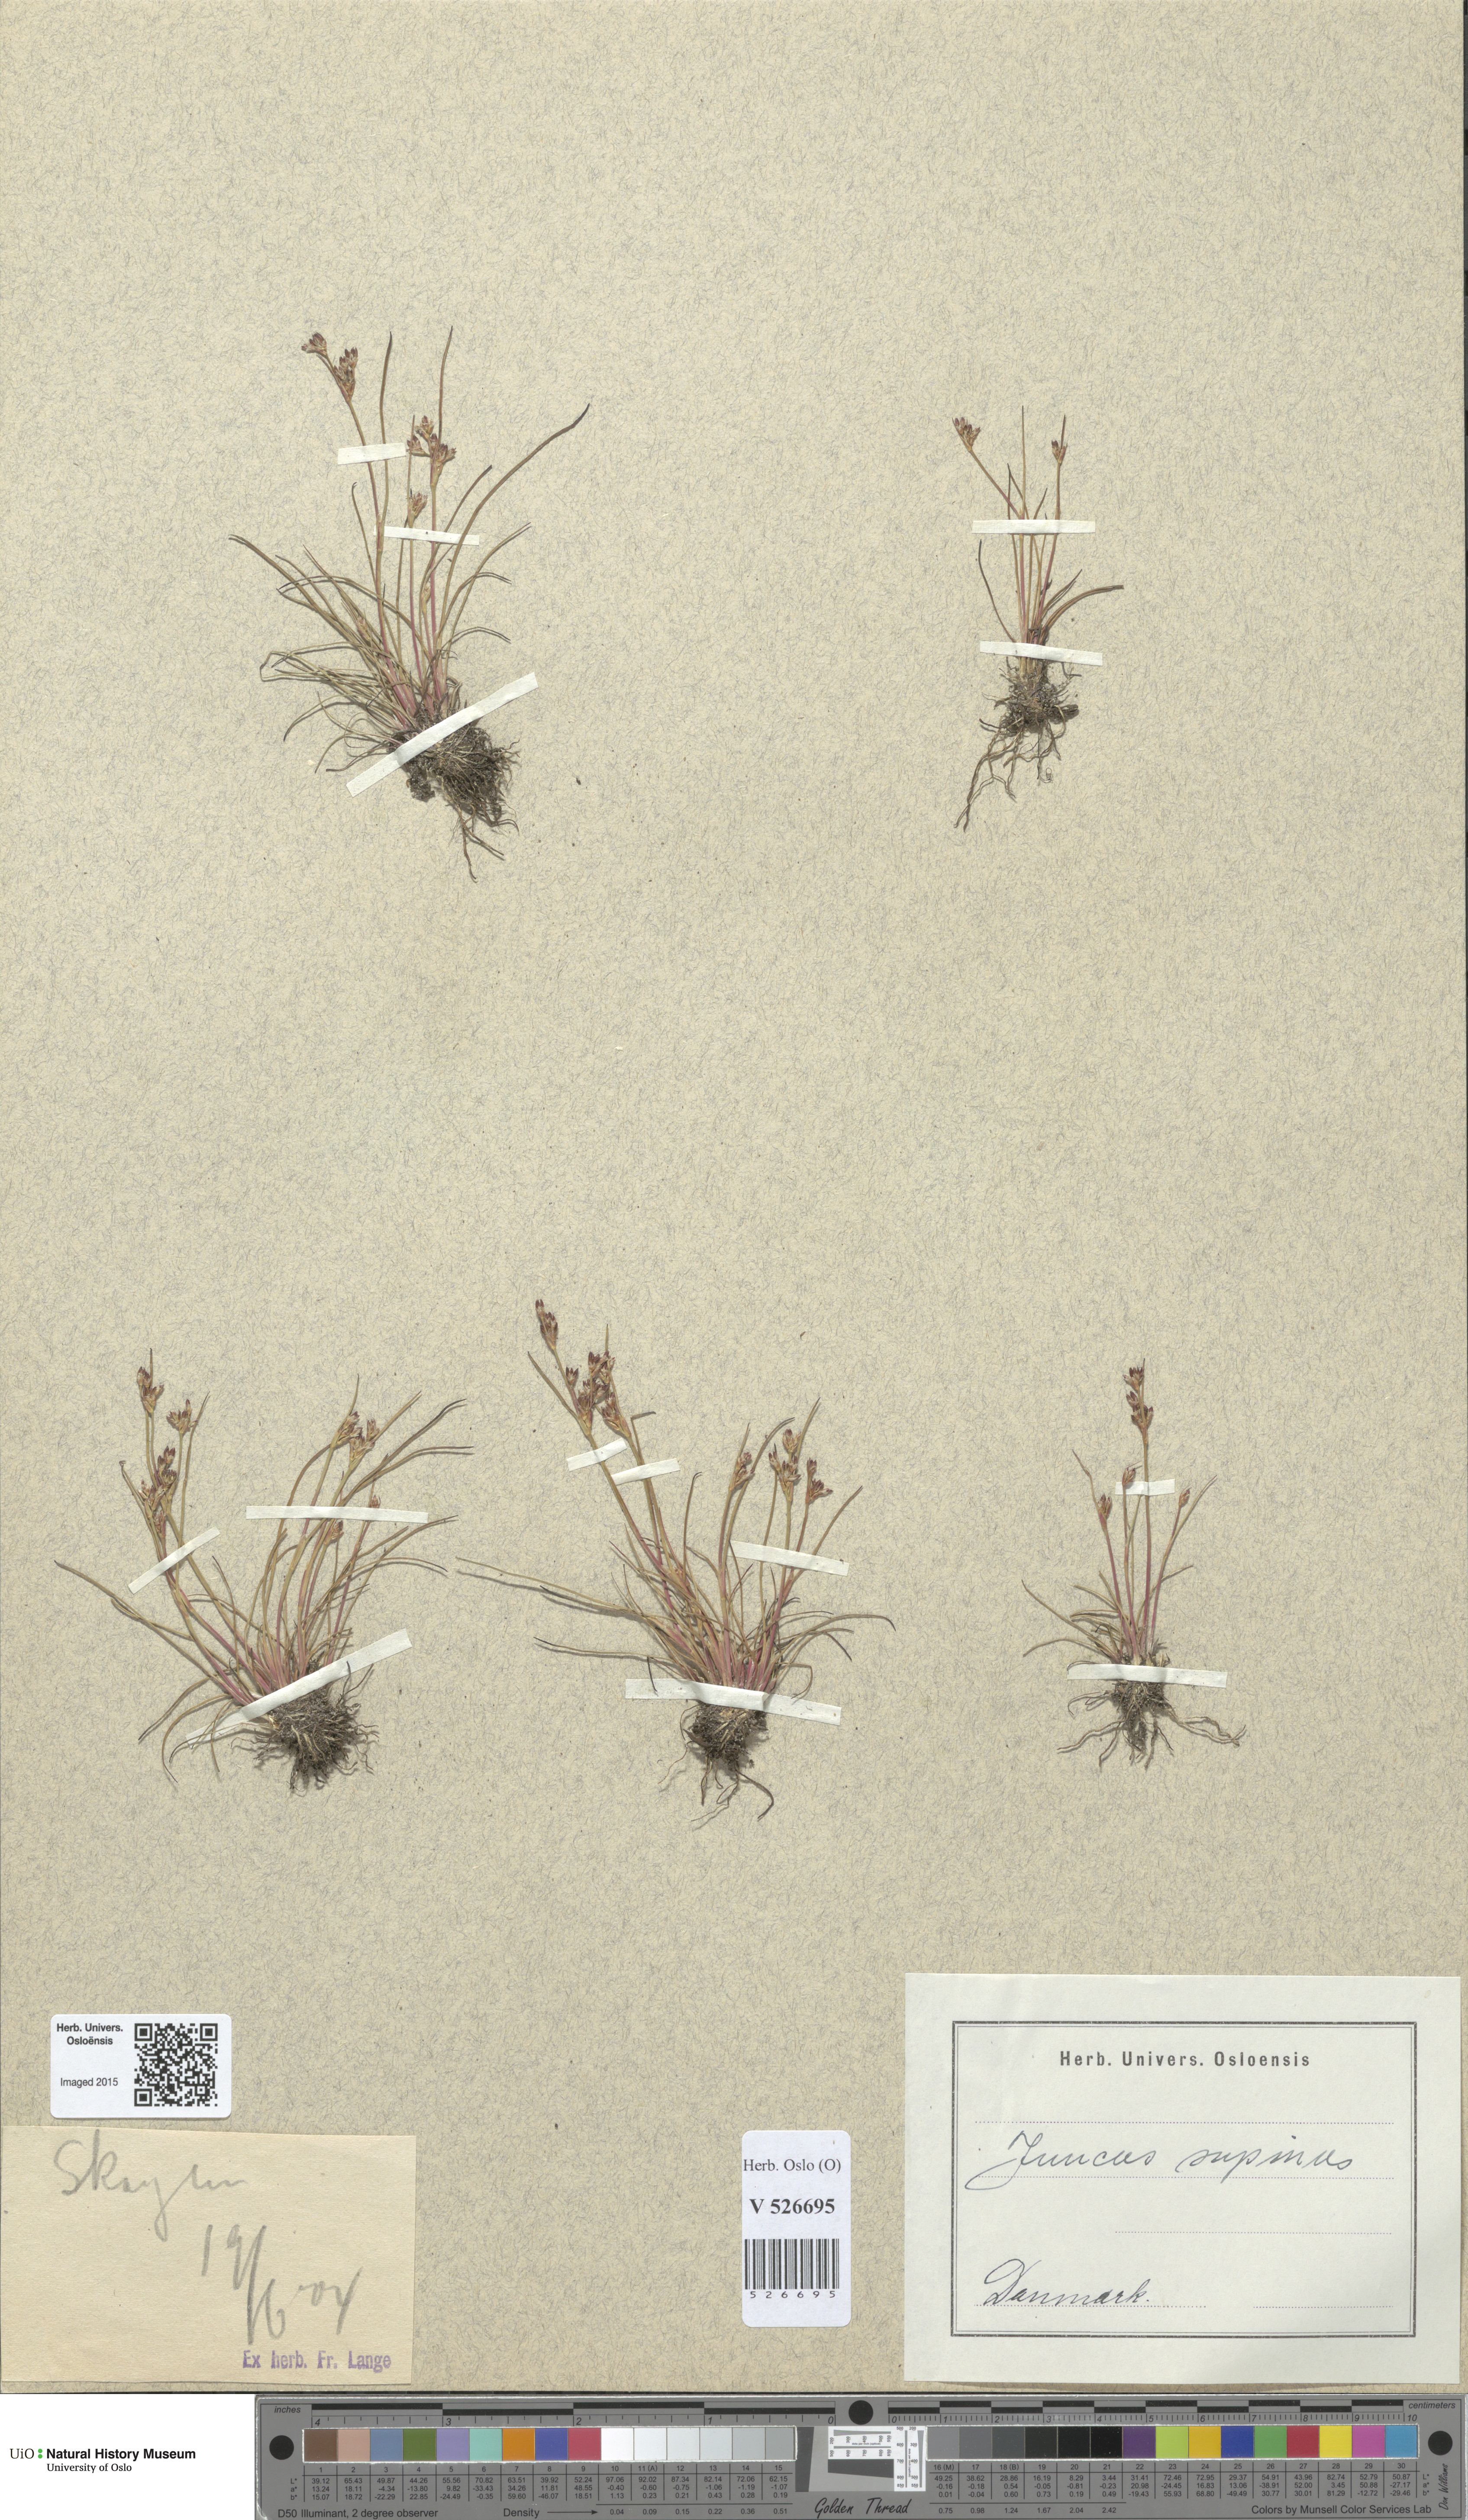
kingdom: Plantae
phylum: Tracheophyta
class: Liliopsida
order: Poales
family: Juncaceae
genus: Juncus
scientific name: Juncus bulbosus
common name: Bulbous rush
